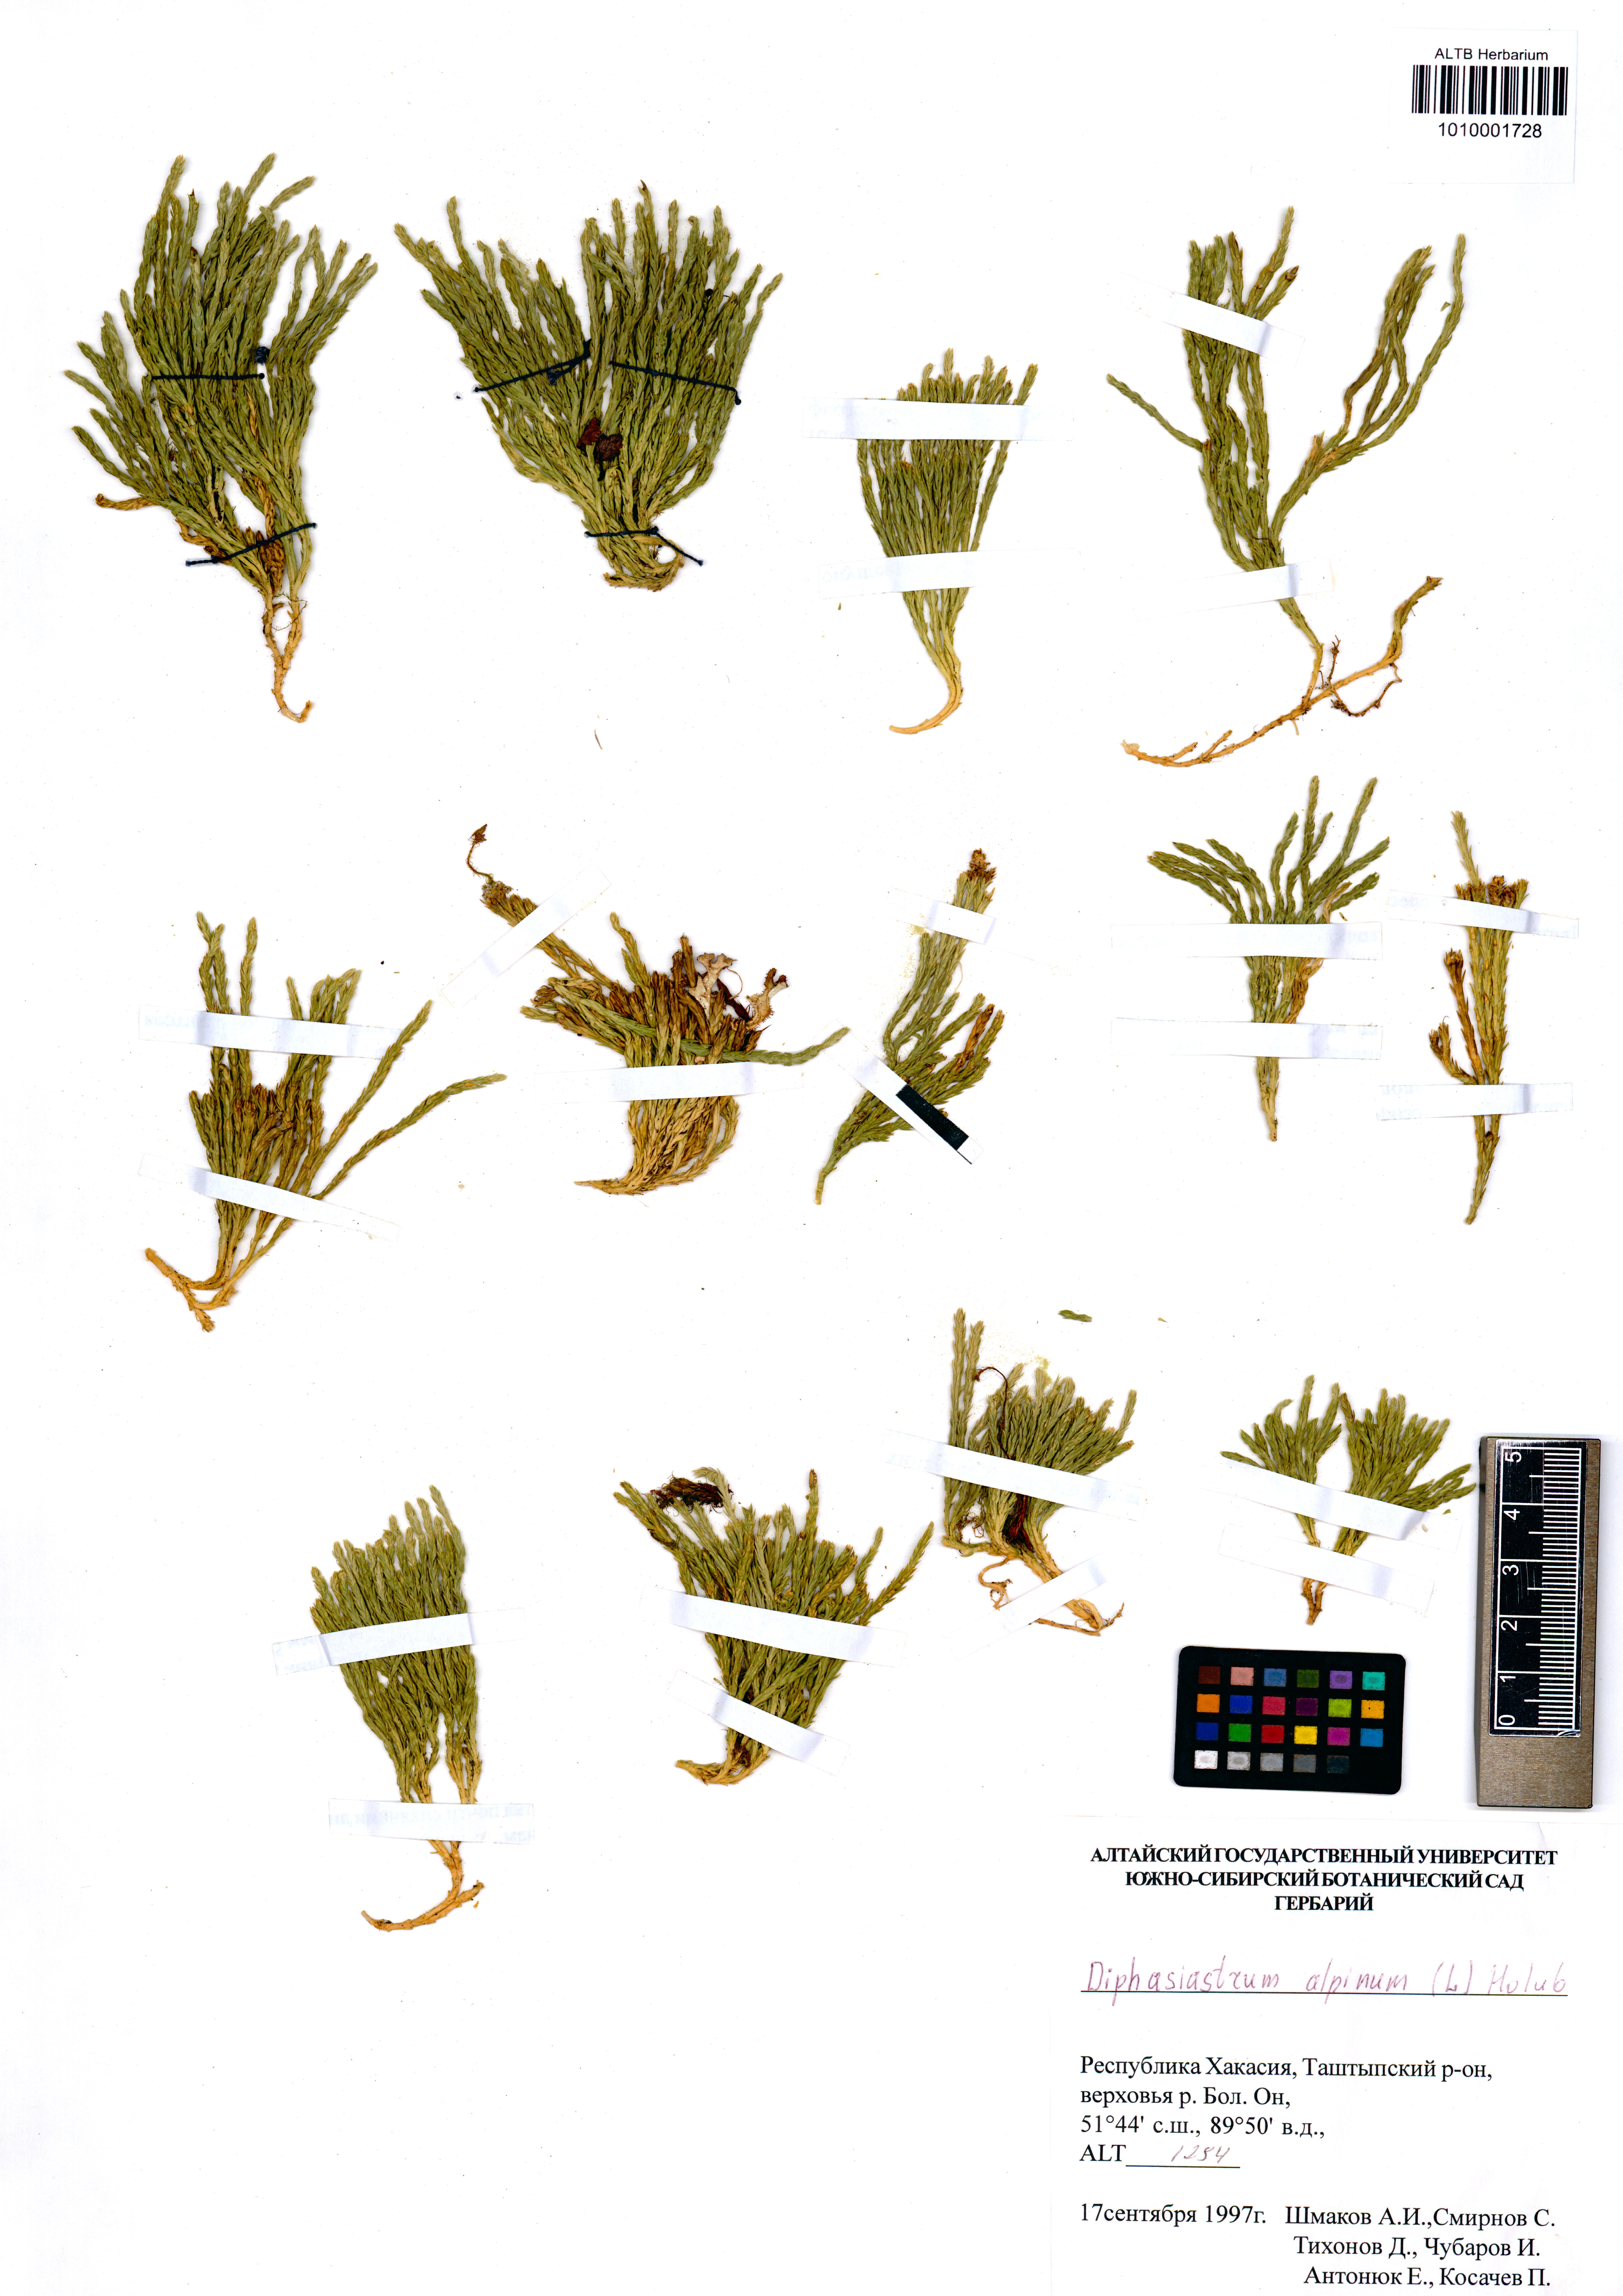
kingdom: Plantae
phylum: Tracheophyta
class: Lycopodiopsida
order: Lycopodiales
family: Lycopodiaceae
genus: Diphasiastrum
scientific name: Diphasiastrum alpinum
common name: Alpine clubmoss
